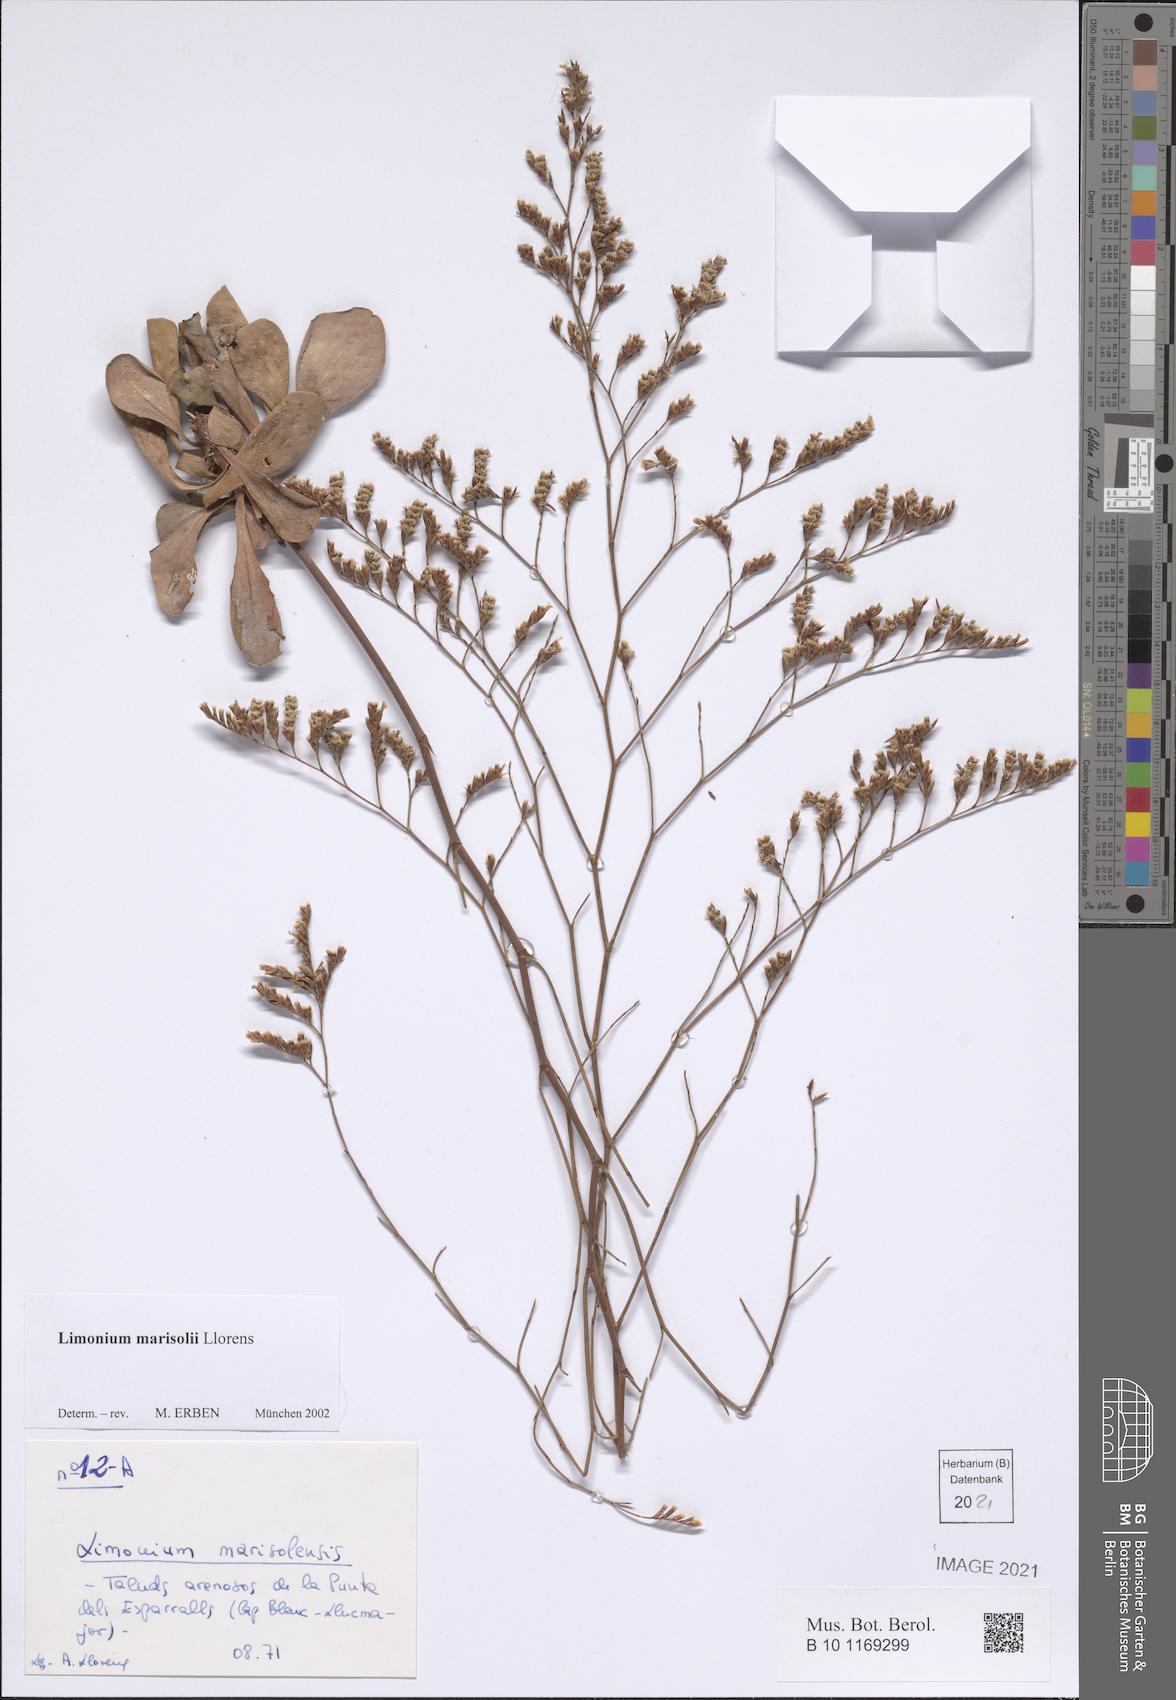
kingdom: Plantae
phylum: Tracheophyta
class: Magnoliopsida
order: Caryophyllales
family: Plumbaginaceae
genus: Limonium
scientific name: Limonium marisolii
